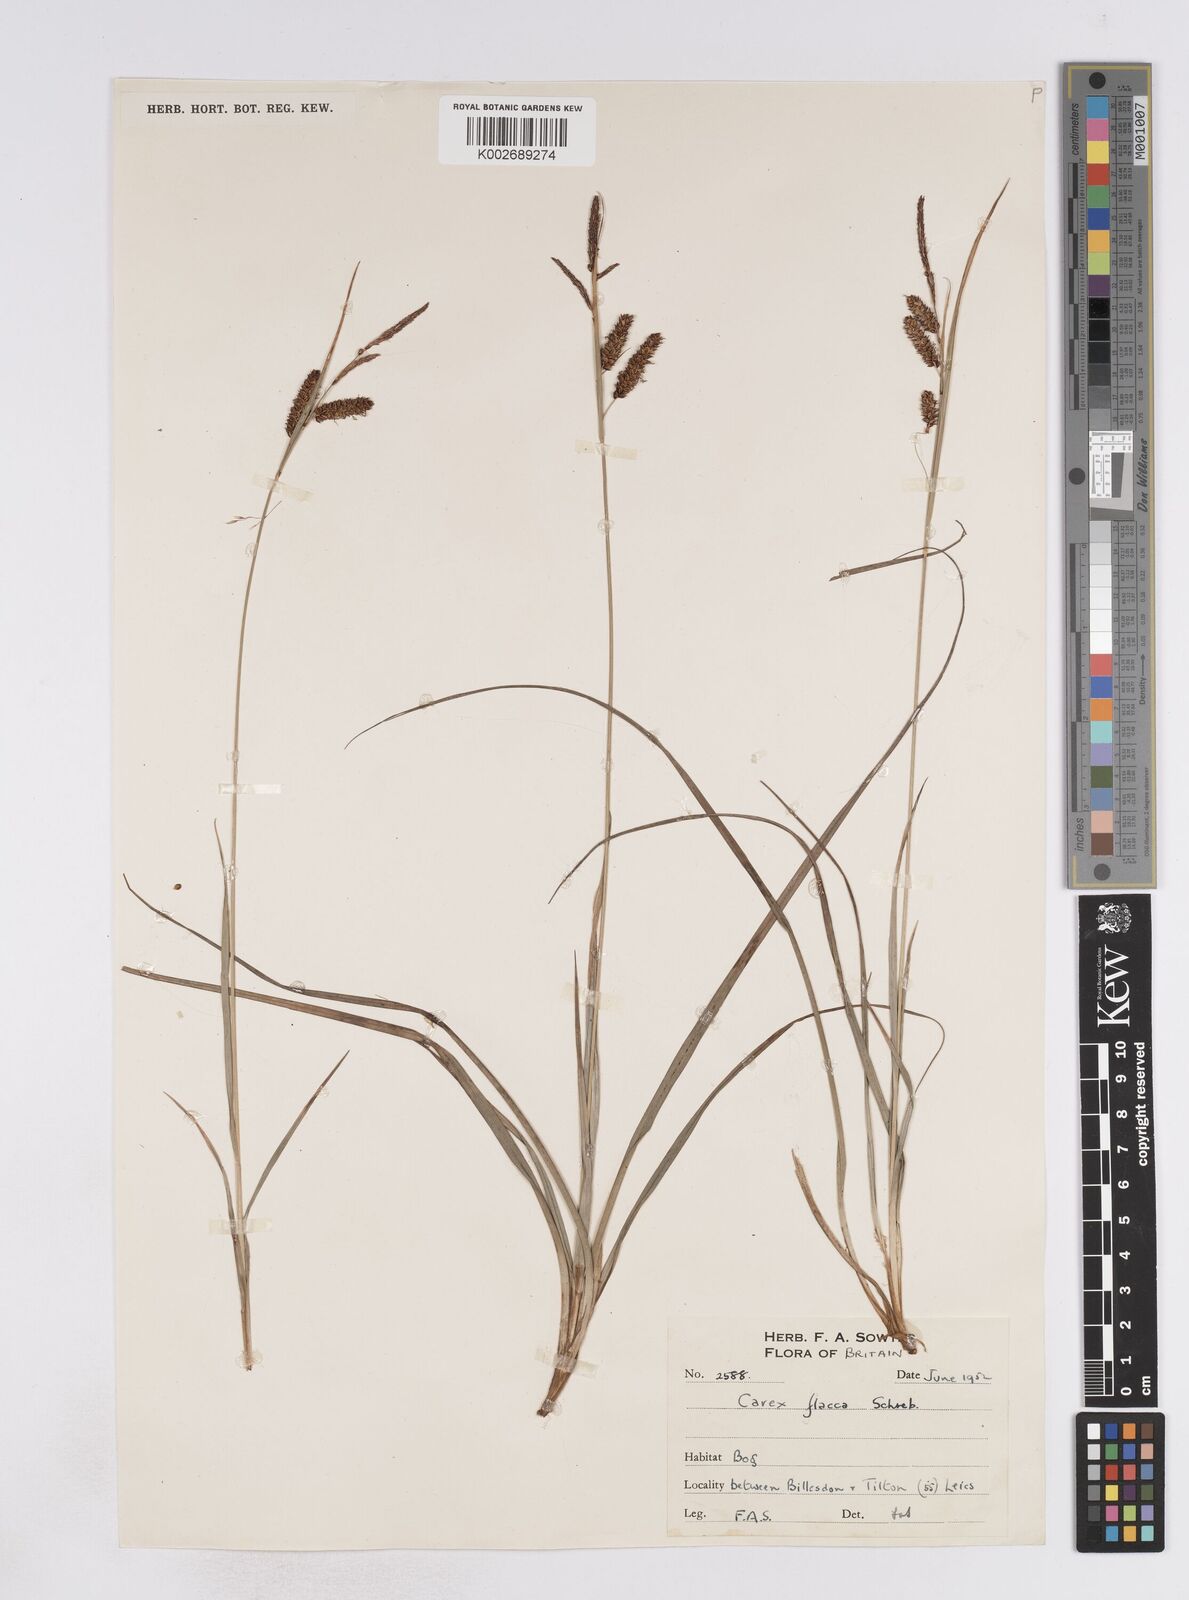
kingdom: Plantae
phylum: Tracheophyta
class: Liliopsida
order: Poales
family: Cyperaceae
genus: Carex
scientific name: Carex flacca
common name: Glaucous sedge
